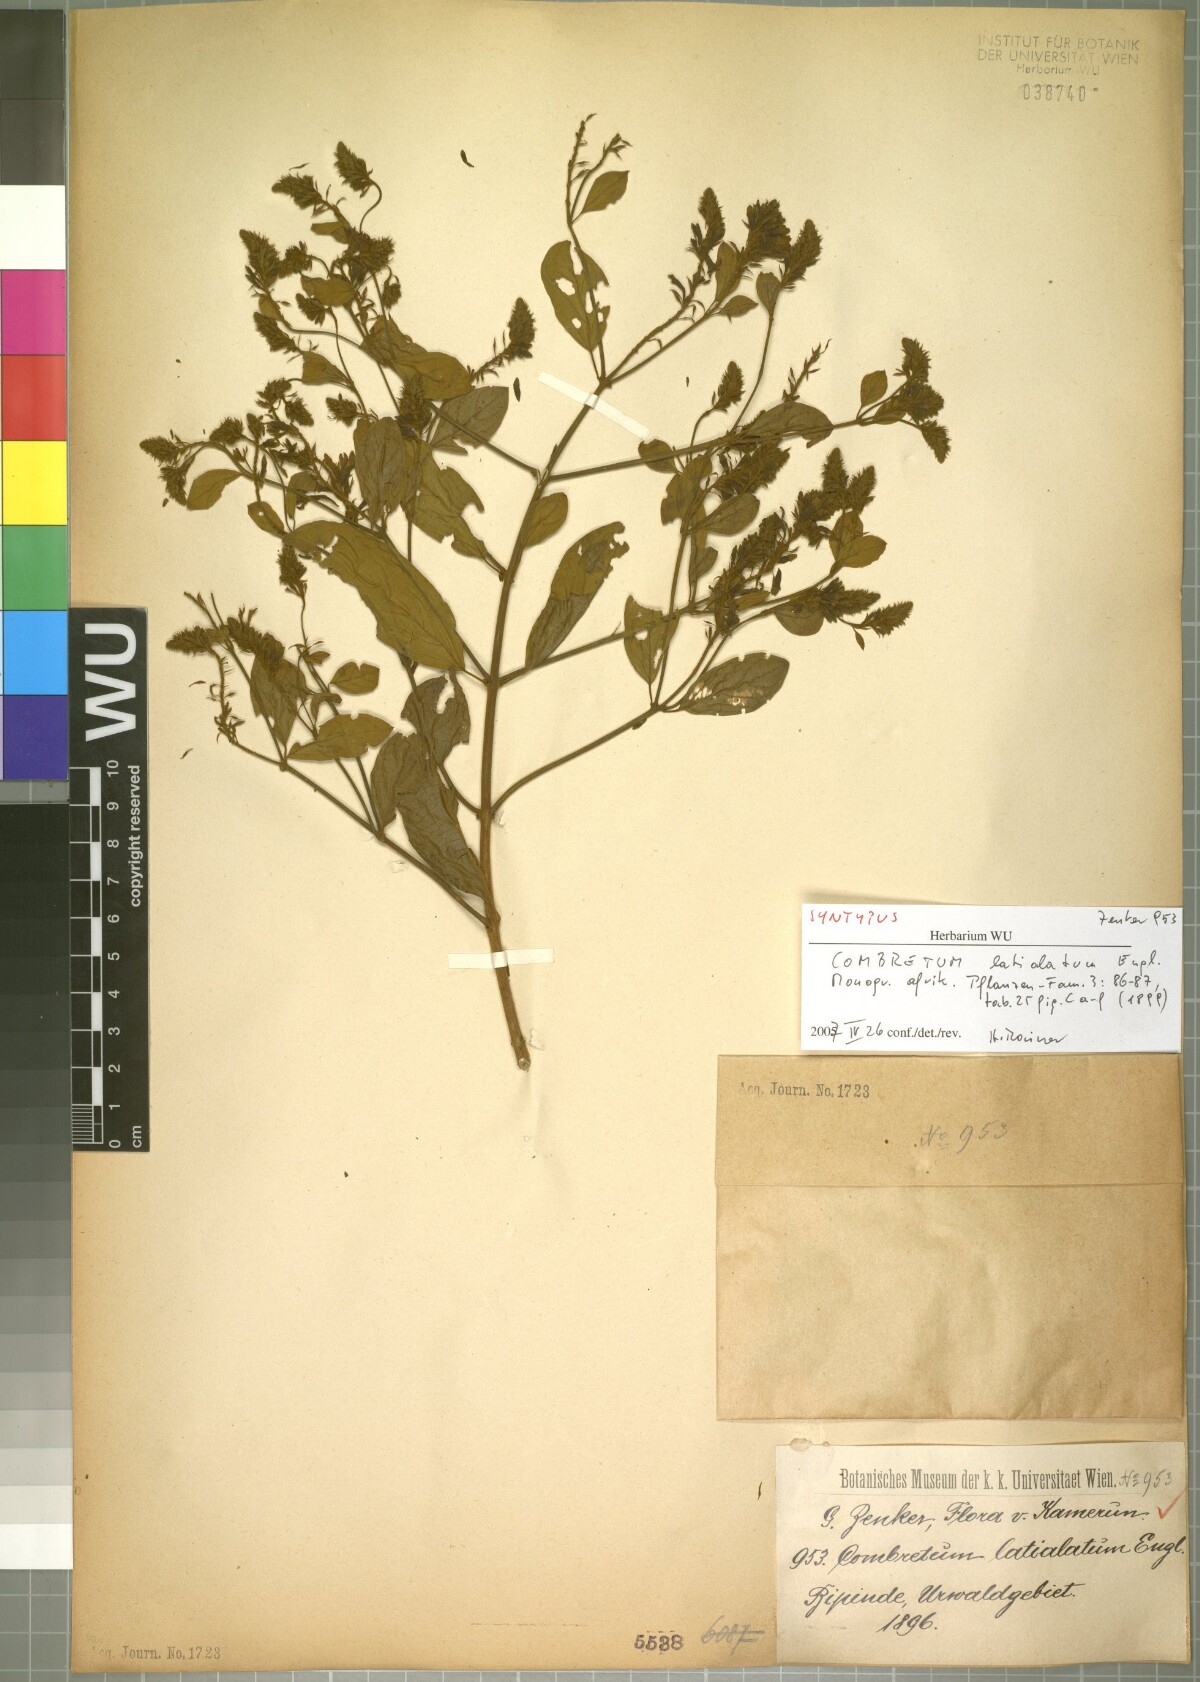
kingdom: Plantae
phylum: Tracheophyta
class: Magnoliopsida
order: Myrtales
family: Combretaceae
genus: Combretum
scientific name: Combretum latialatum
